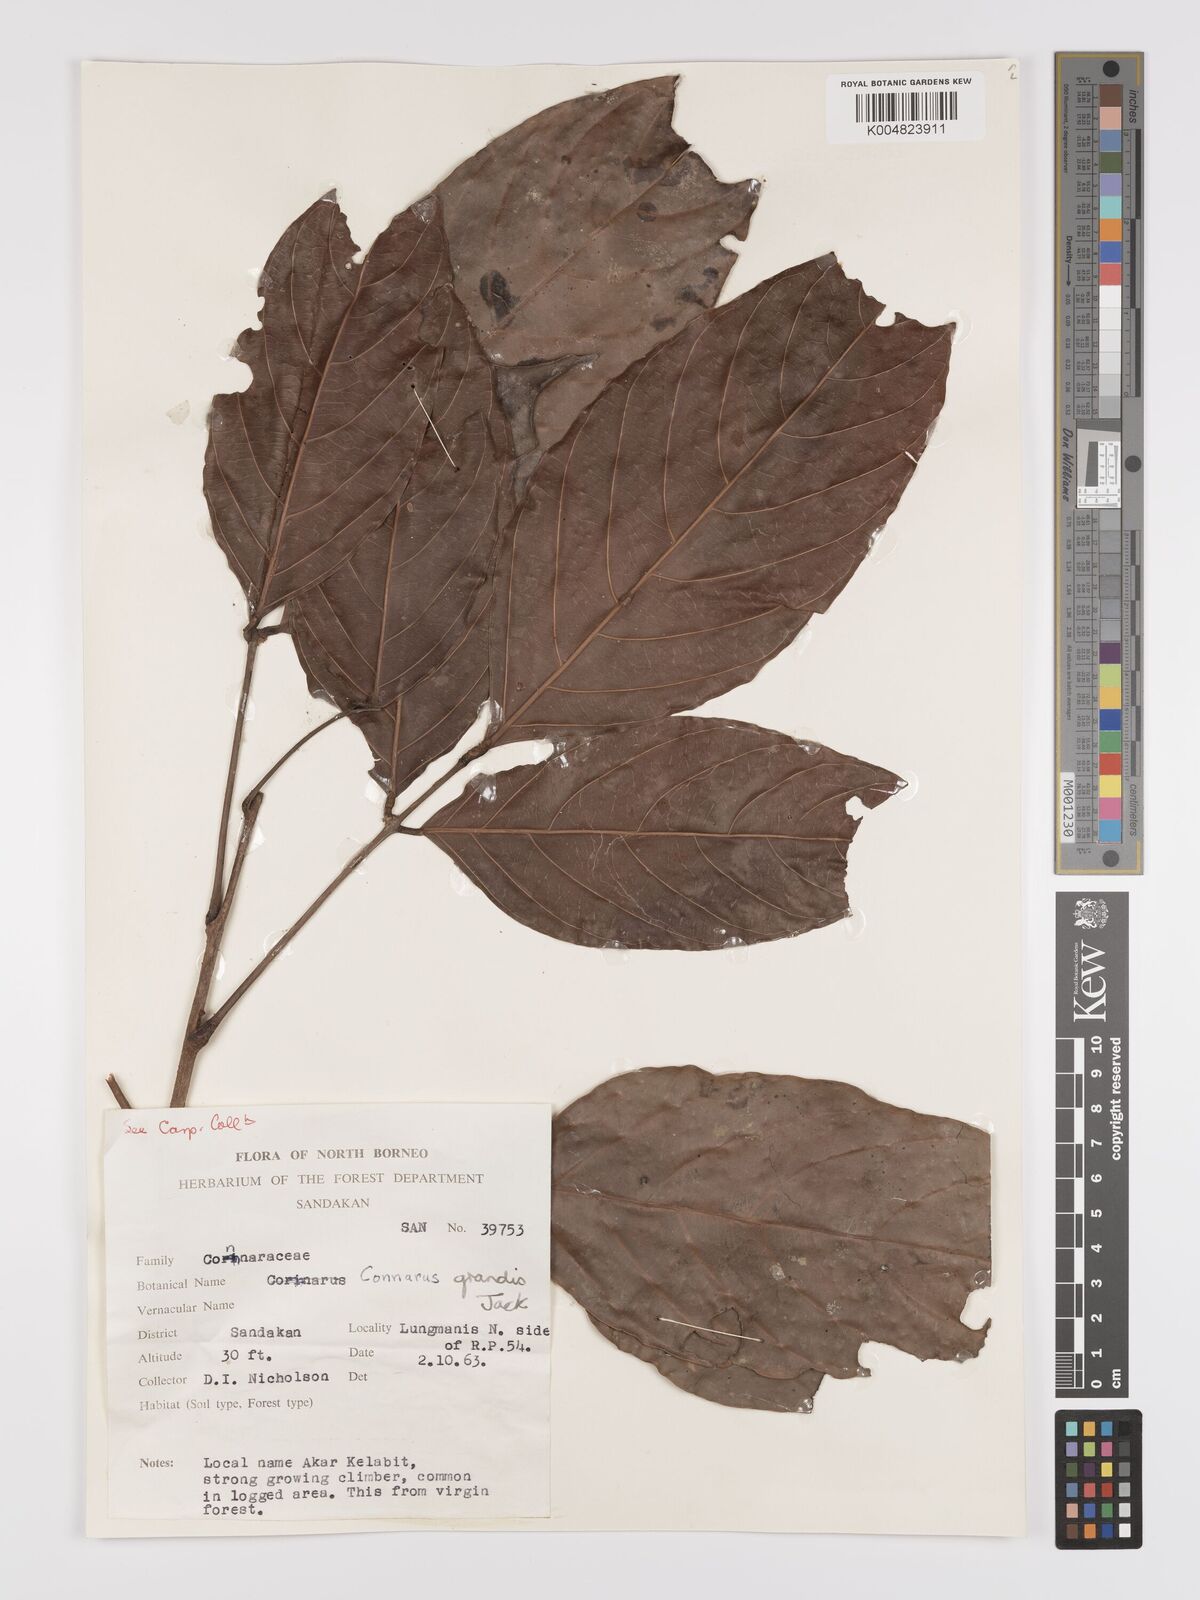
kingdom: Plantae
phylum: Tracheophyta
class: Magnoliopsida
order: Oxalidales
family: Connaraceae
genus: Connarus
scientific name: Connarus grandis
